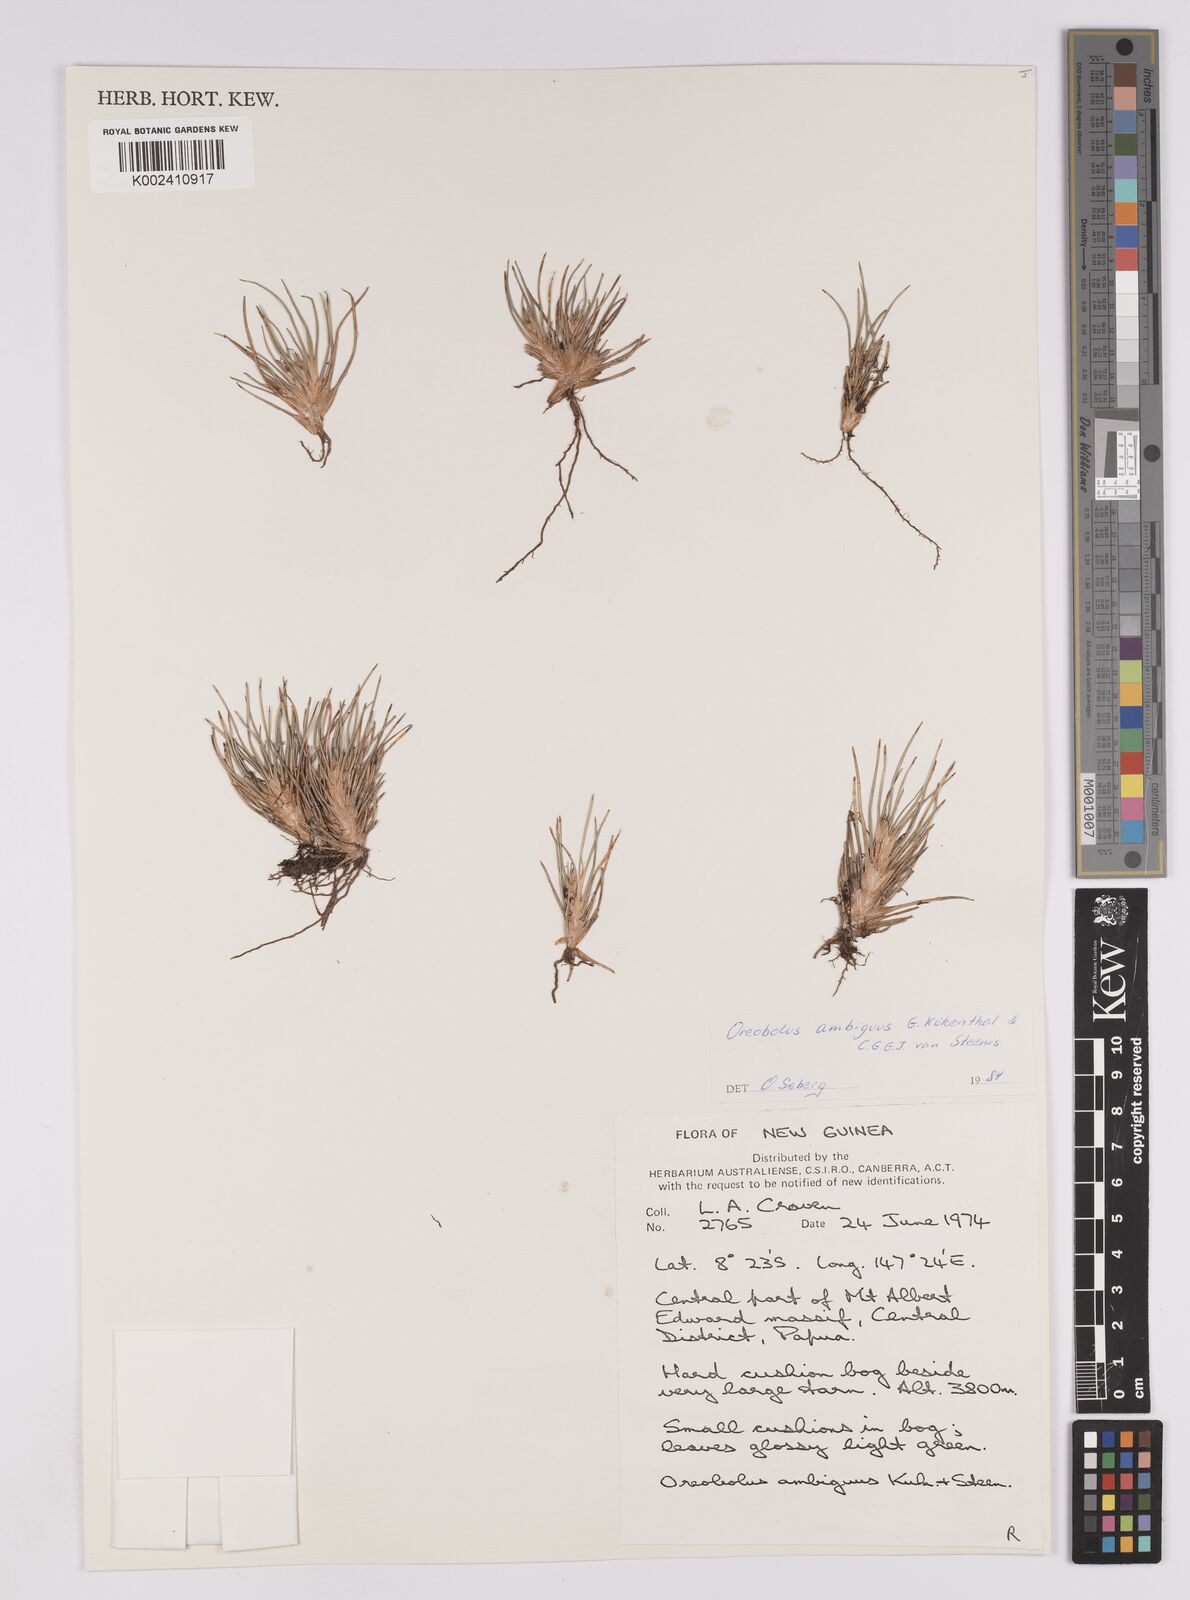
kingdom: Plantae
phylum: Tracheophyta
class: Liliopsida
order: Poales
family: Cyperaceae
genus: Oreobolus
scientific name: Oreobolus ambiguus
